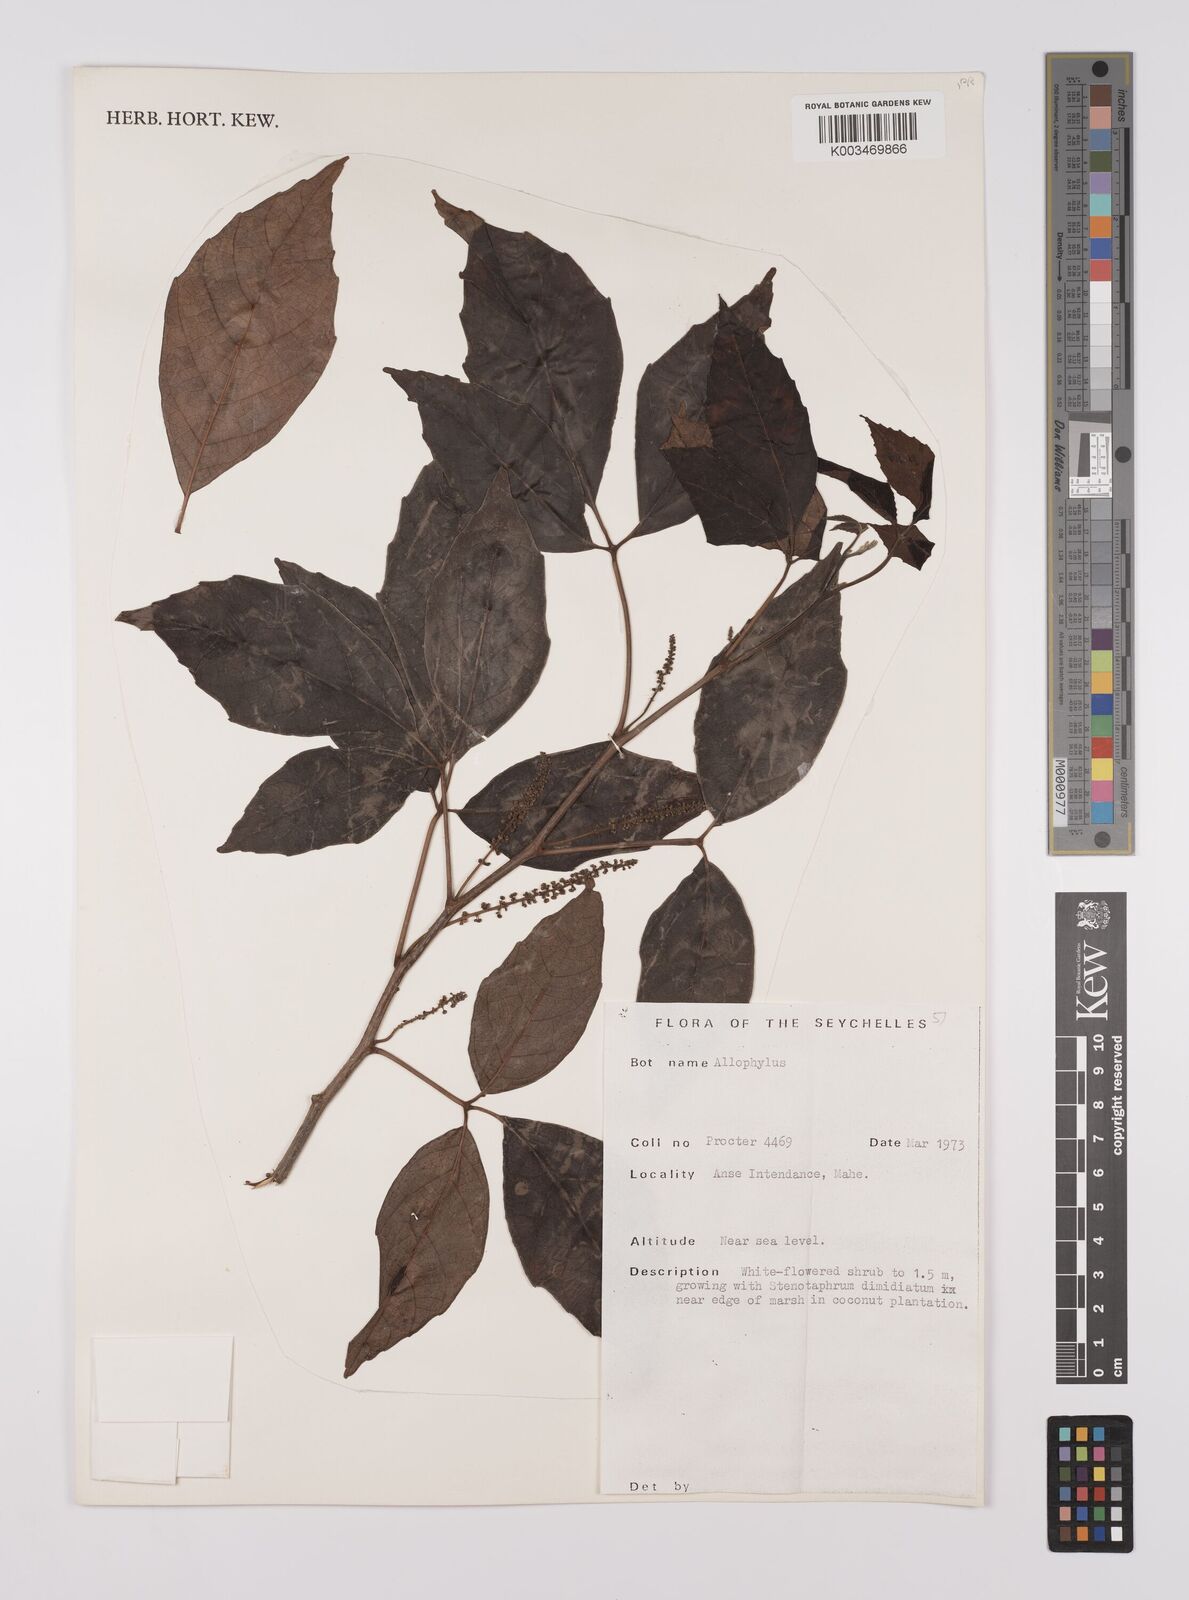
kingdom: Plantae
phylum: Tracheophyta
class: Magnoliopsida
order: Sapindales
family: Sapindaceae
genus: Allophylus
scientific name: Allophylus sechellensis
